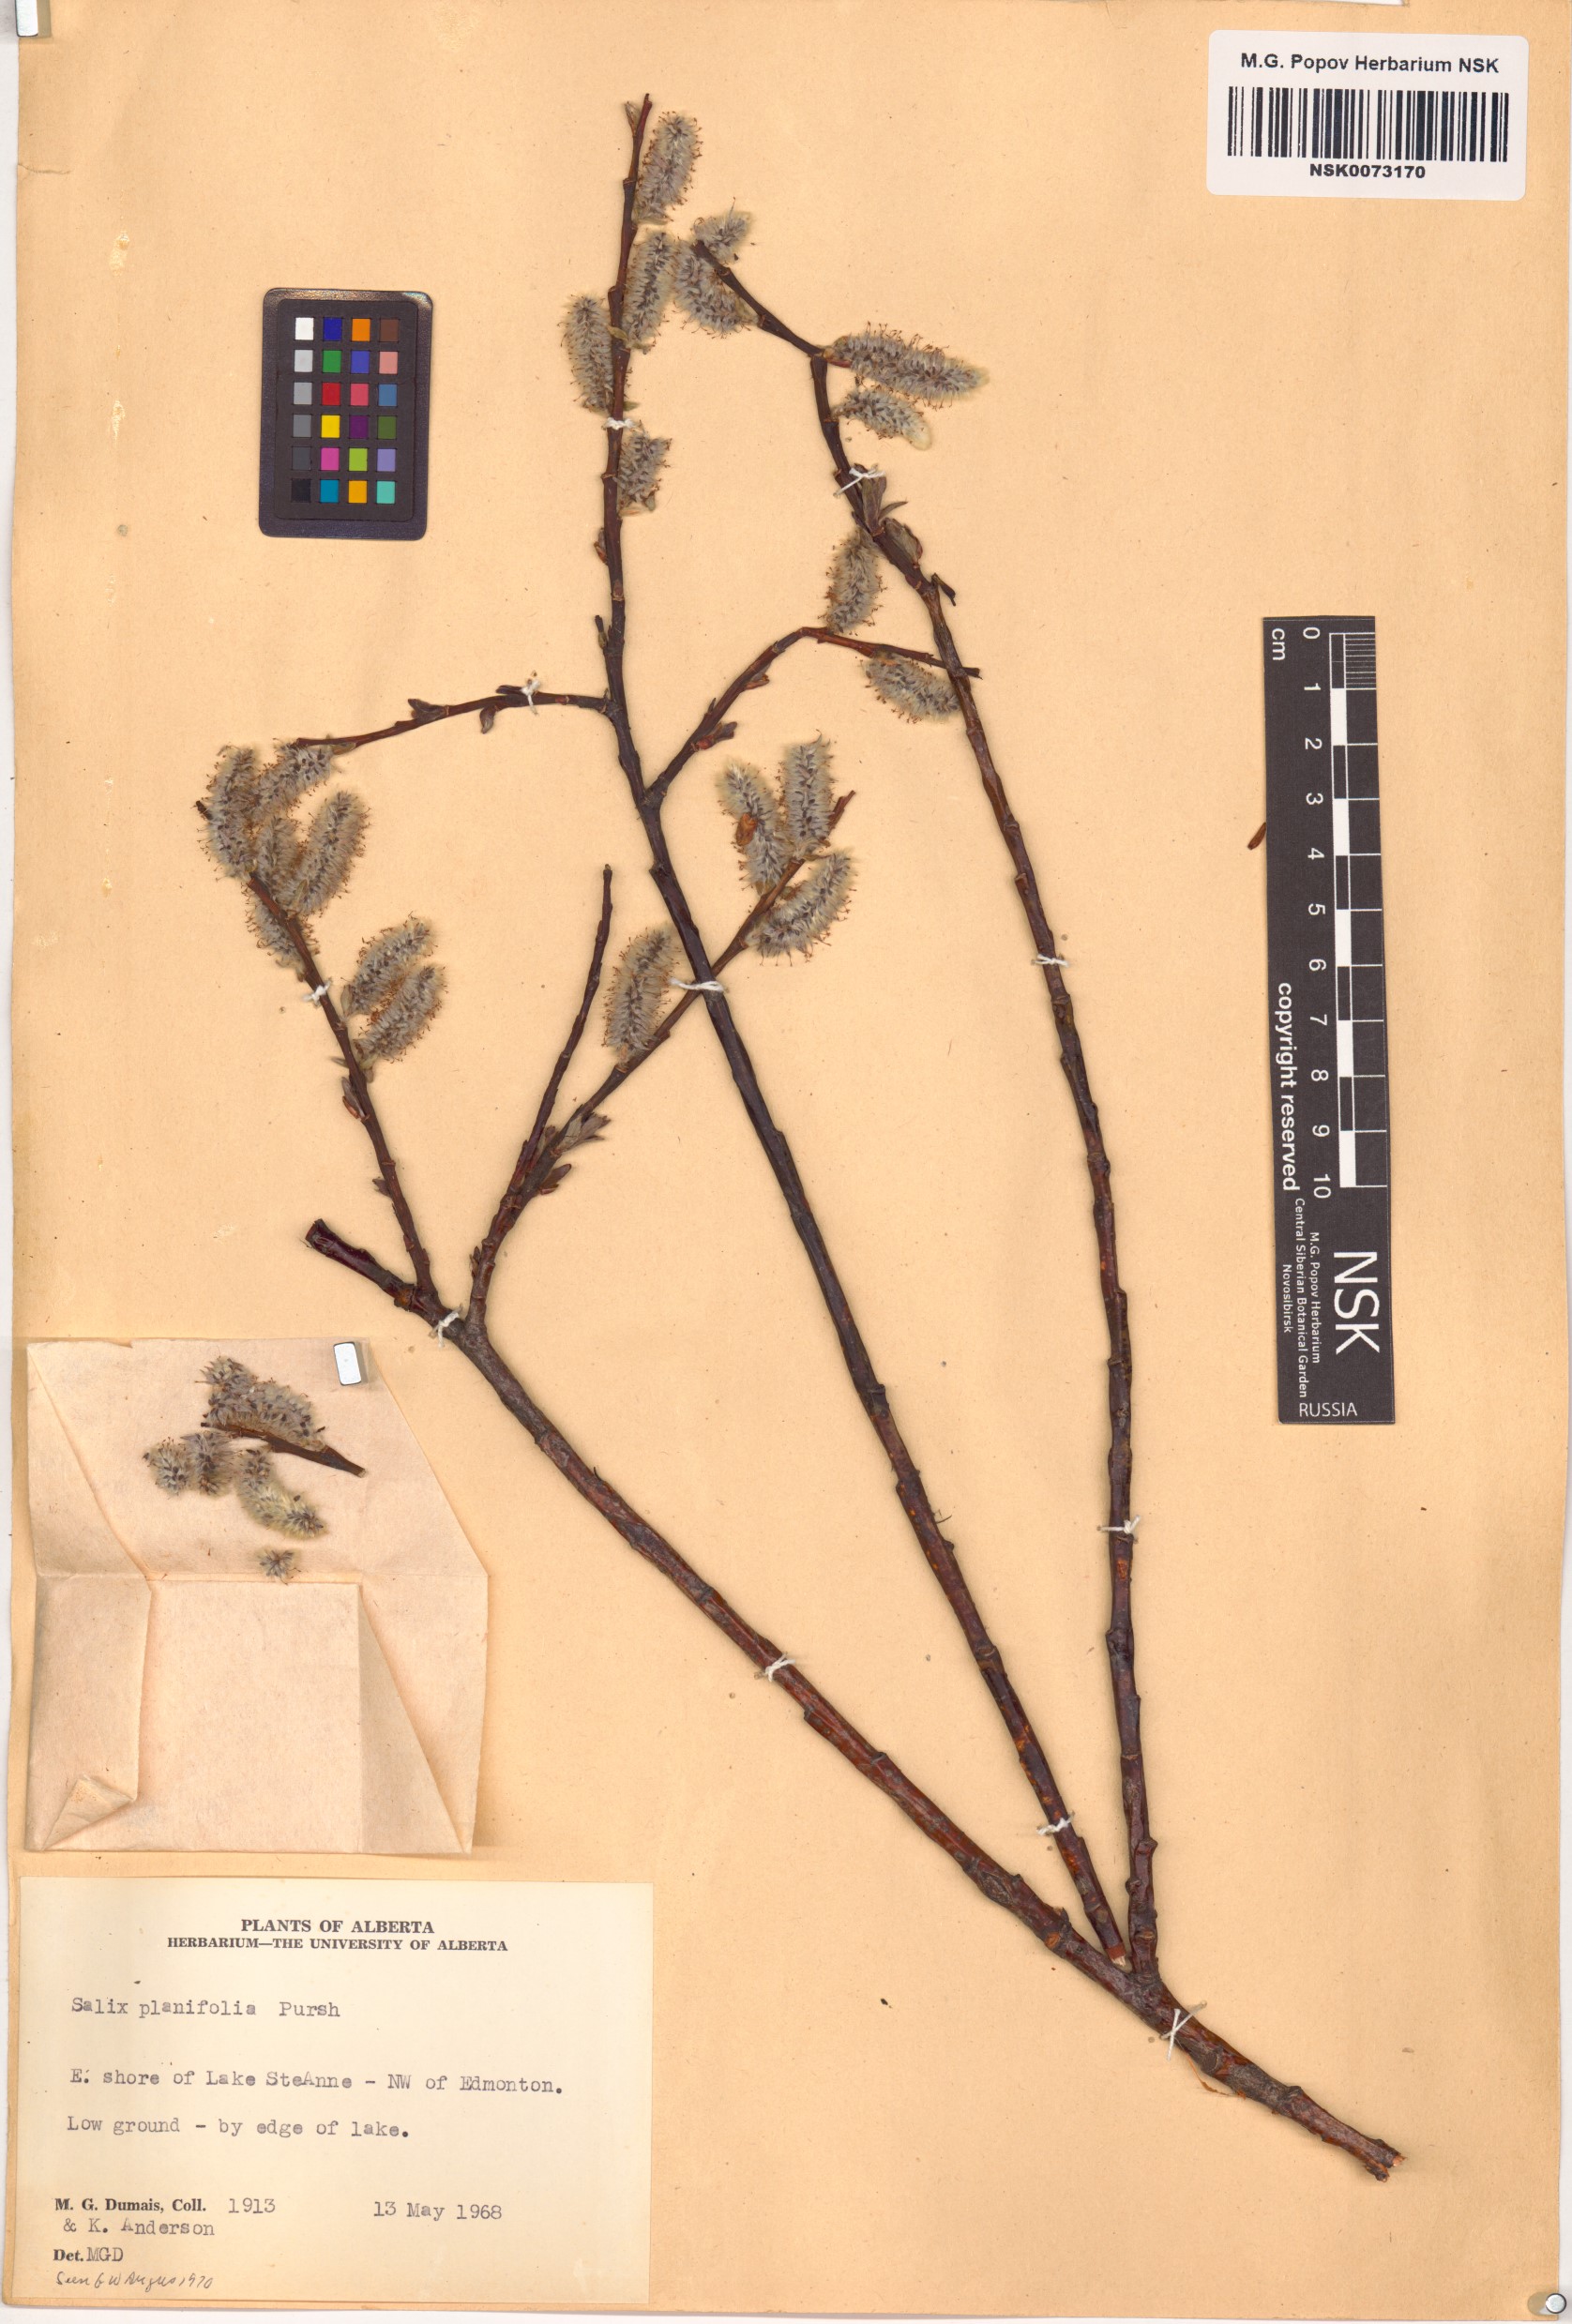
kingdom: Plantae
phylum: Tracheophyta
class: Magnoliopsida
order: Malpighiales
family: Salicaceae
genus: Salix
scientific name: Salix planifolia
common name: Mountain willow
